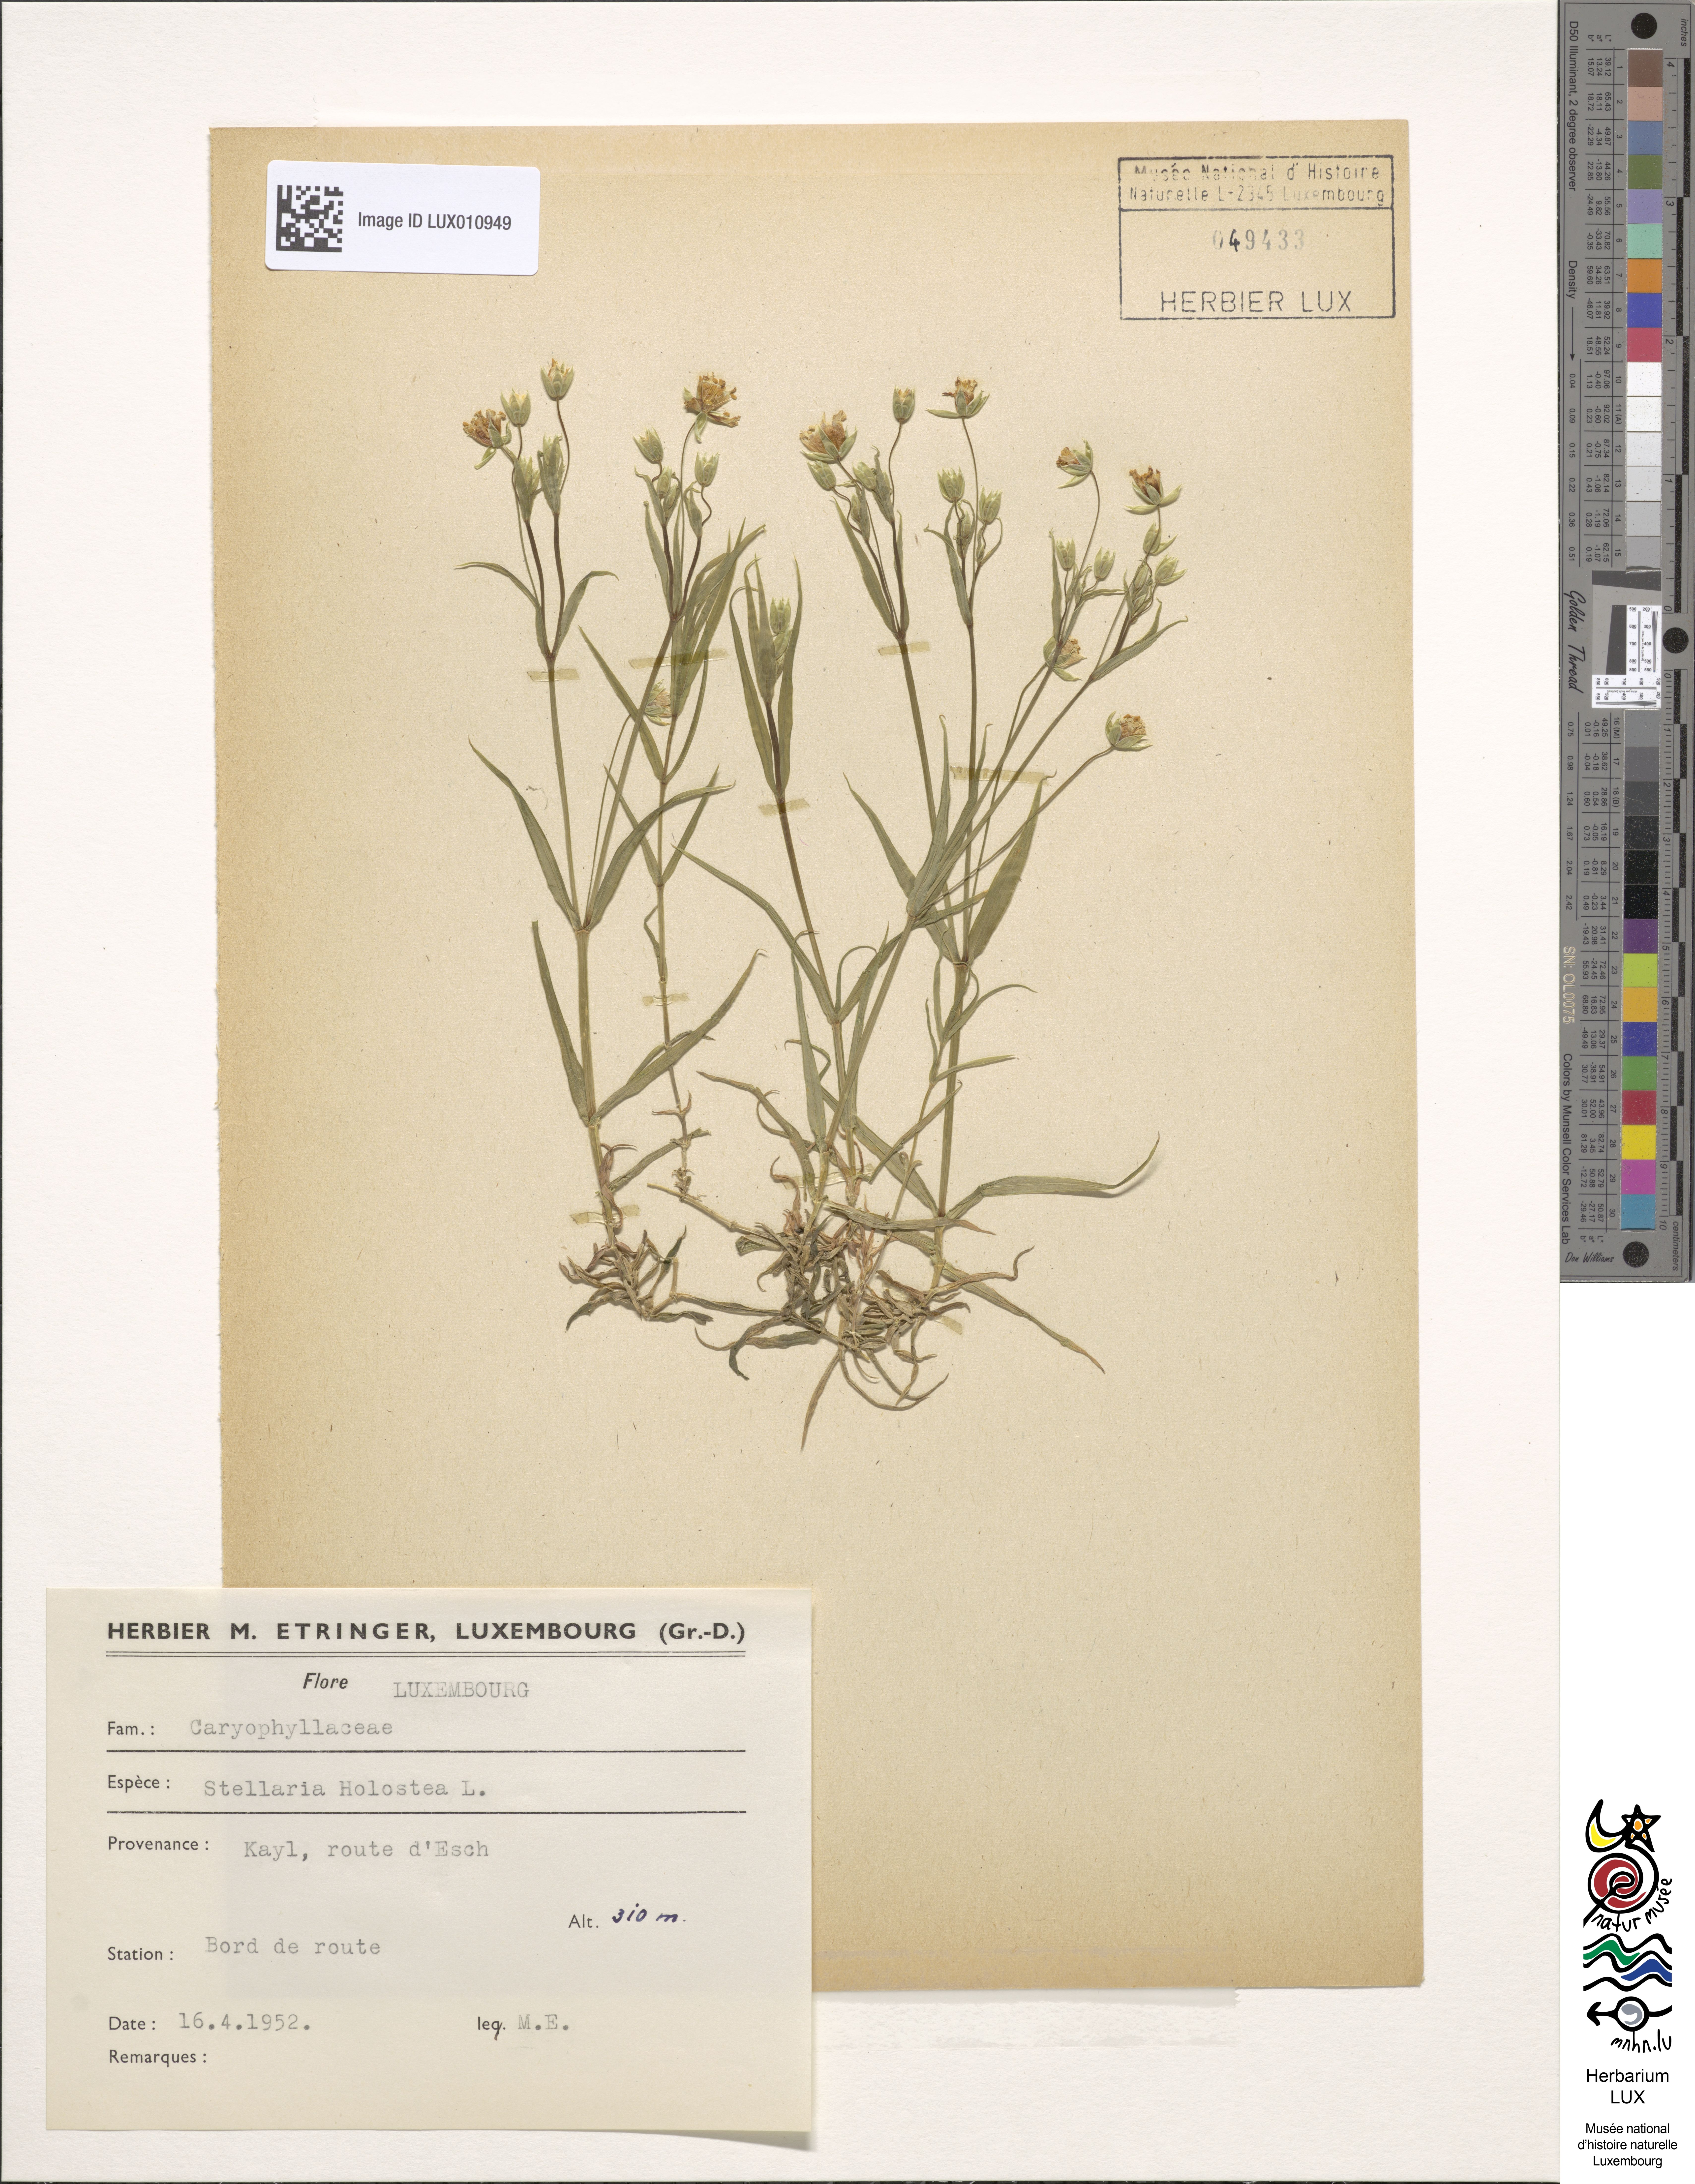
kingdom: Plantae
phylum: Tracheophyta
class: Magnoliopsida
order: Caryophyllales
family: Caryophyllaceae
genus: Rabelera
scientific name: Rabelera holostea
